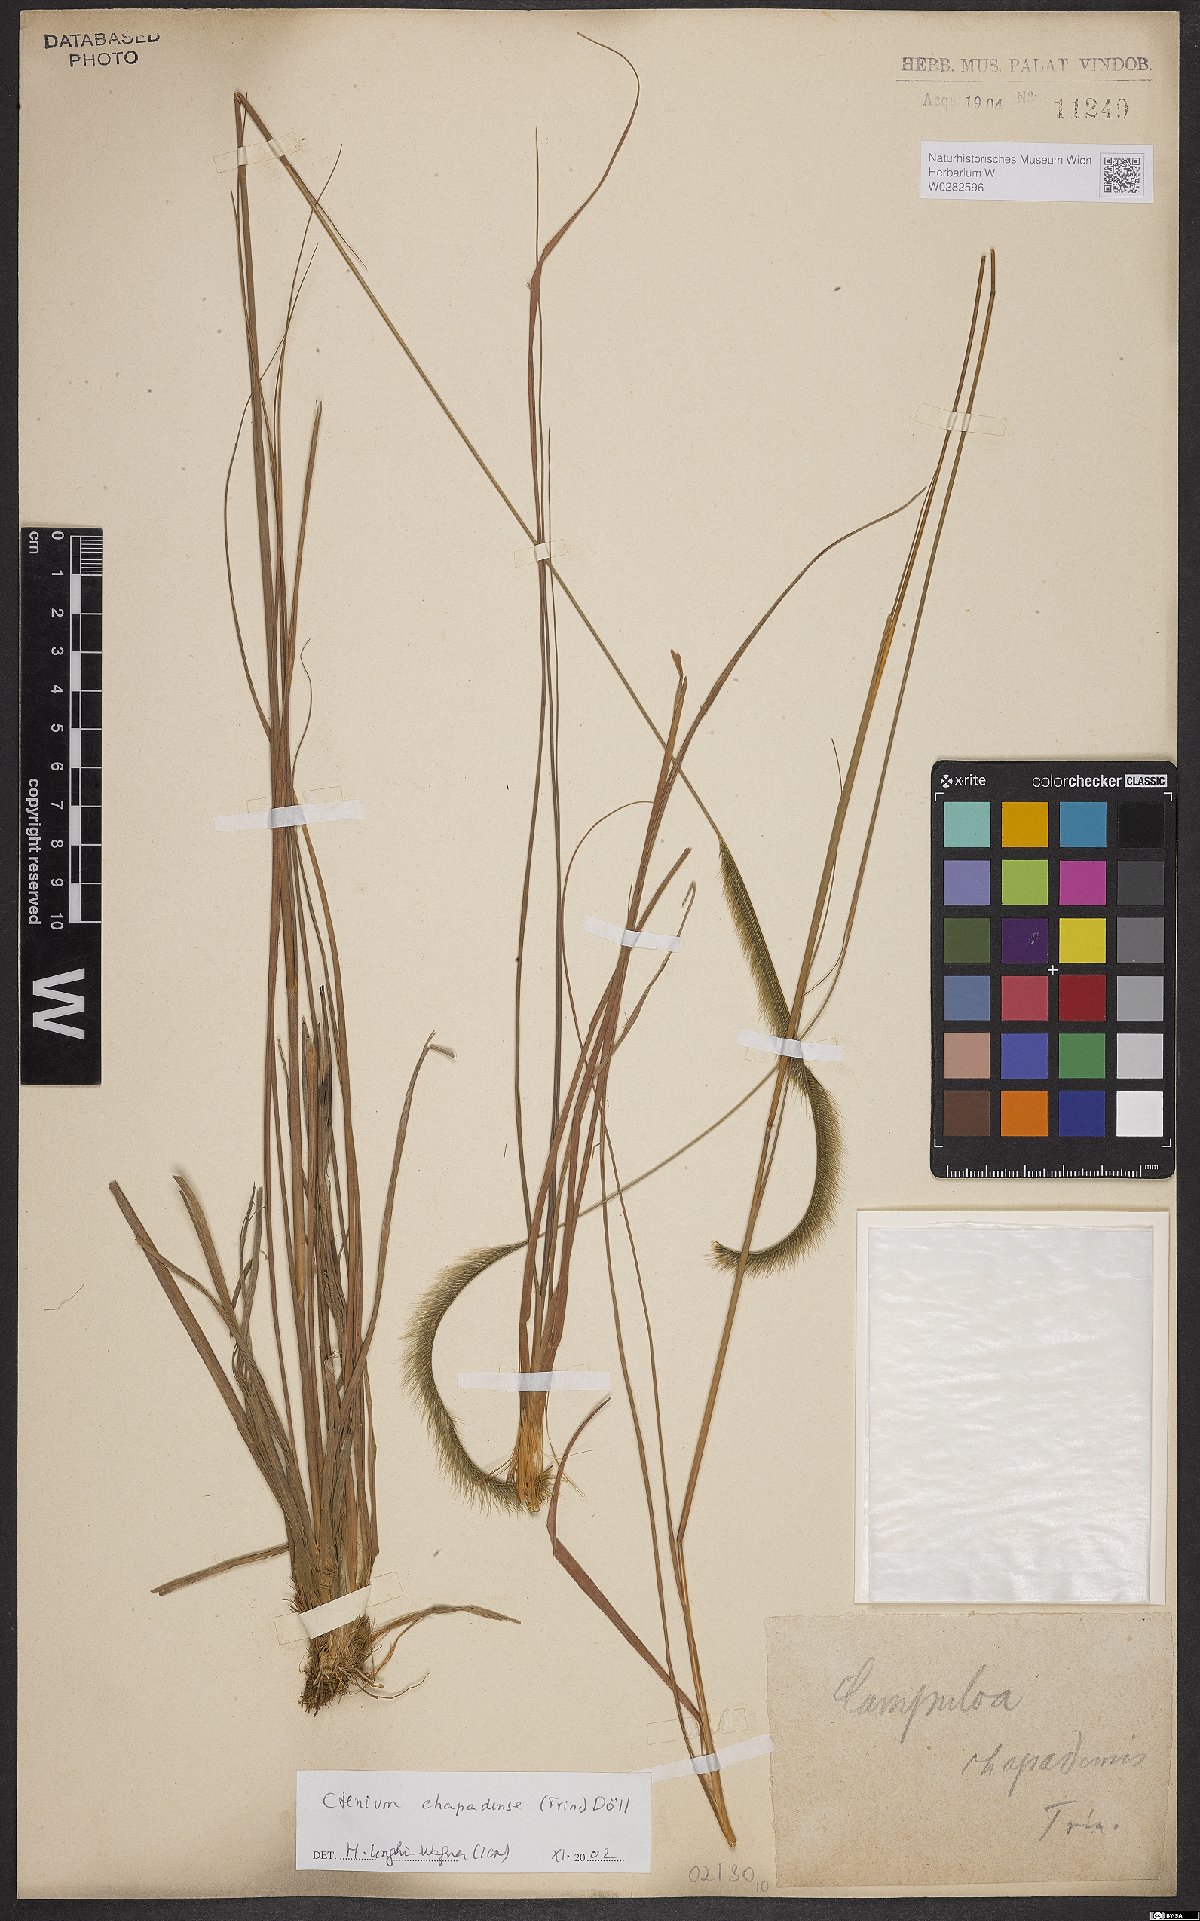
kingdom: Plantae
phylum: Tracheophyta
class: Liliopsida
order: Poales
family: Poaceae
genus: Ctenium
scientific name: Ctenium chapadense
